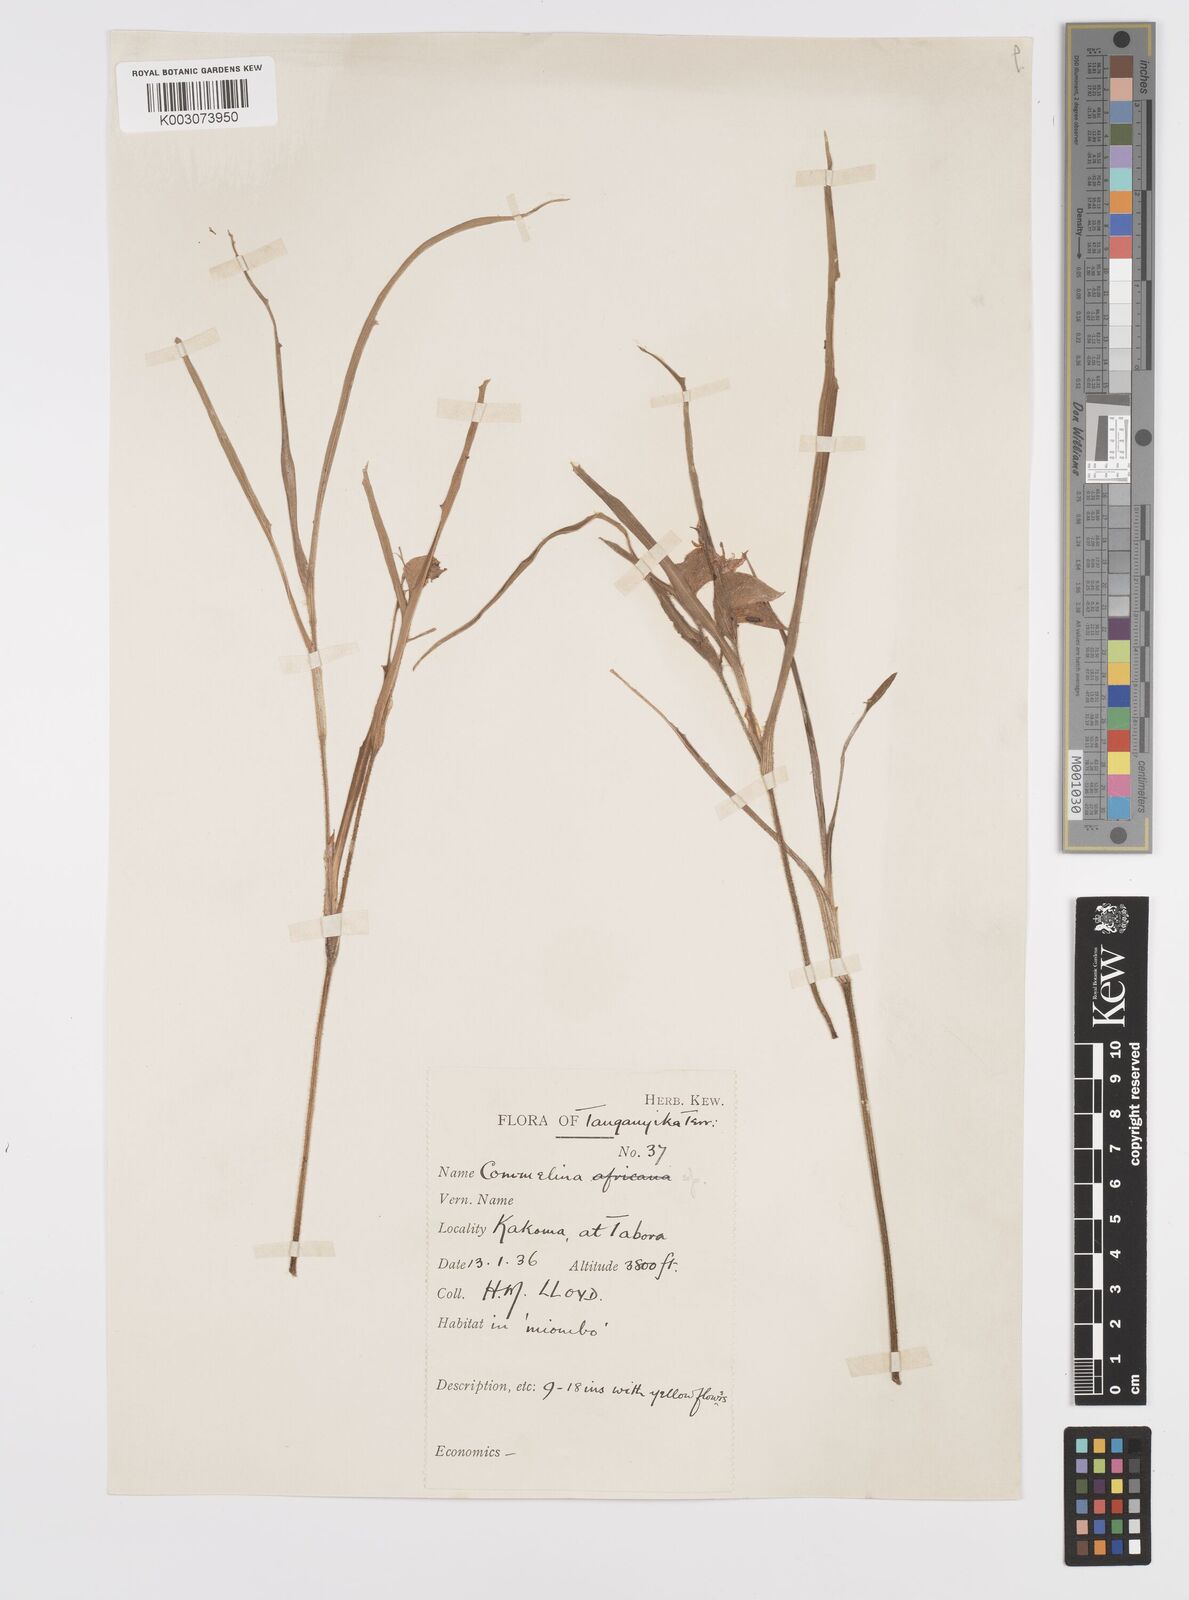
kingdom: Plantae
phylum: Tracheophyta
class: Liliopsida
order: Commelinales
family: Commelinaceae
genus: Commelina
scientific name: Commelina eckloniana
